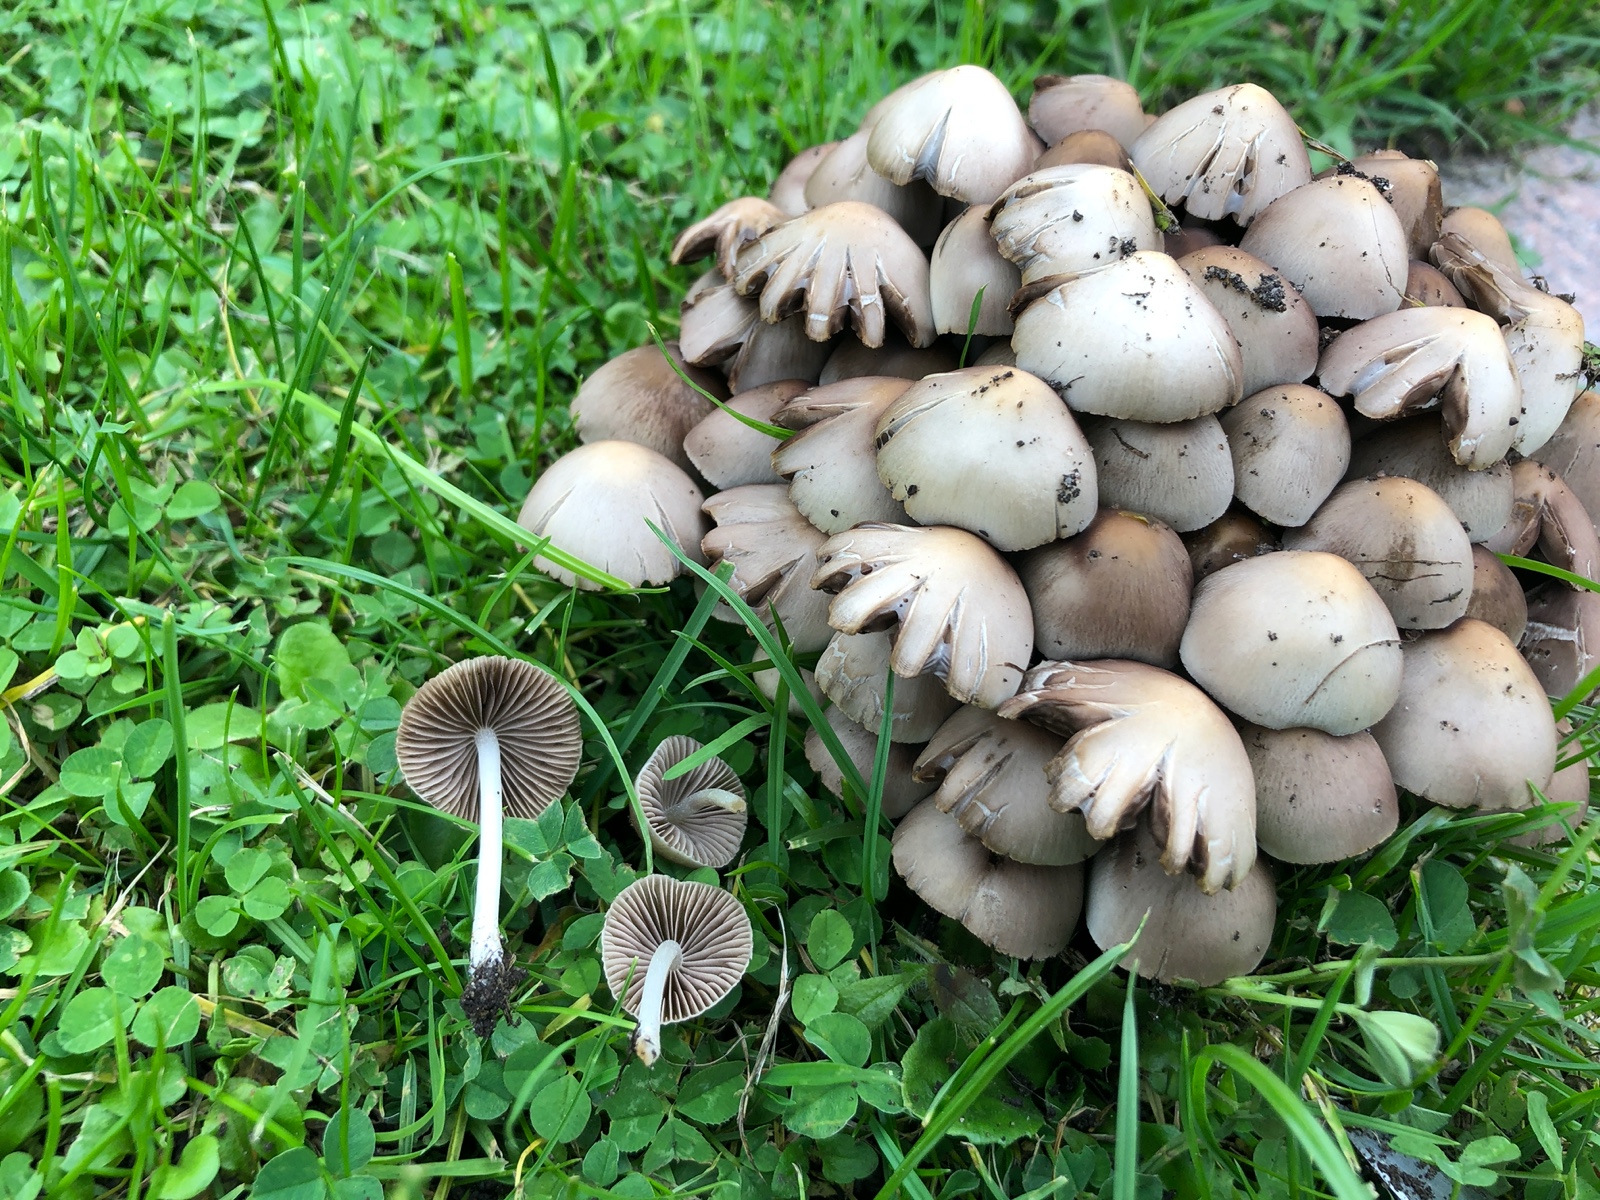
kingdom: Fungi
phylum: Basidiomycota
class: Agaricomycetes
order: Agaricales
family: Psathyrellaceae
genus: Britzelmayria
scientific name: Britzelmayria multipedata
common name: knippe-mørkhat
